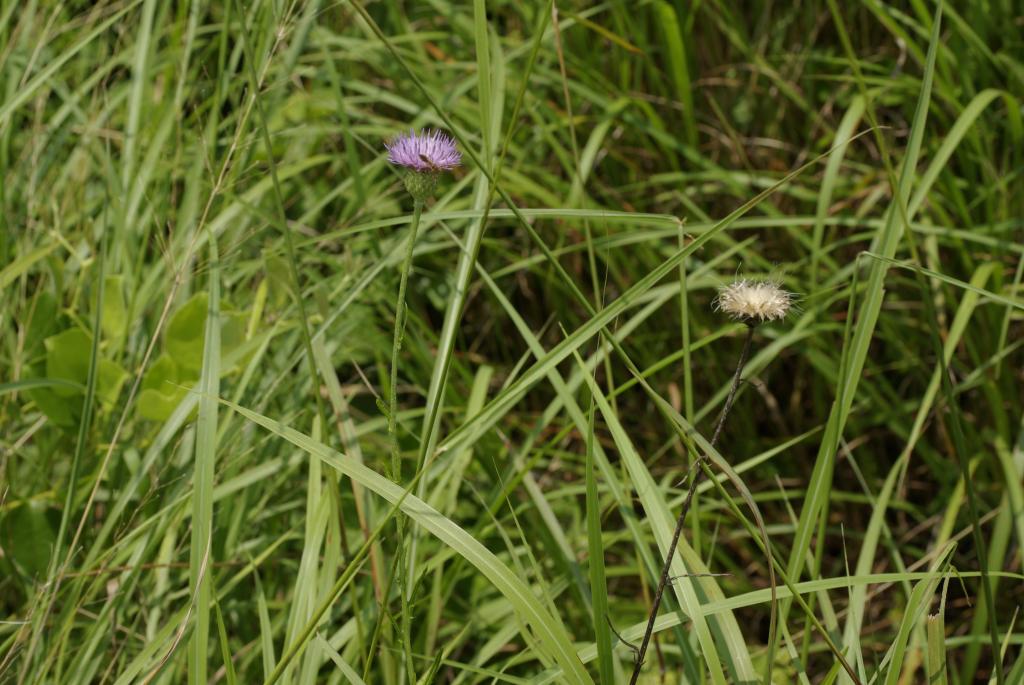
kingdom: Plantae
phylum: Tracheophyta
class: Magnoliopsida
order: Asterales
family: Asteraceae
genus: Cirsium
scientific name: Cirsium lineare
